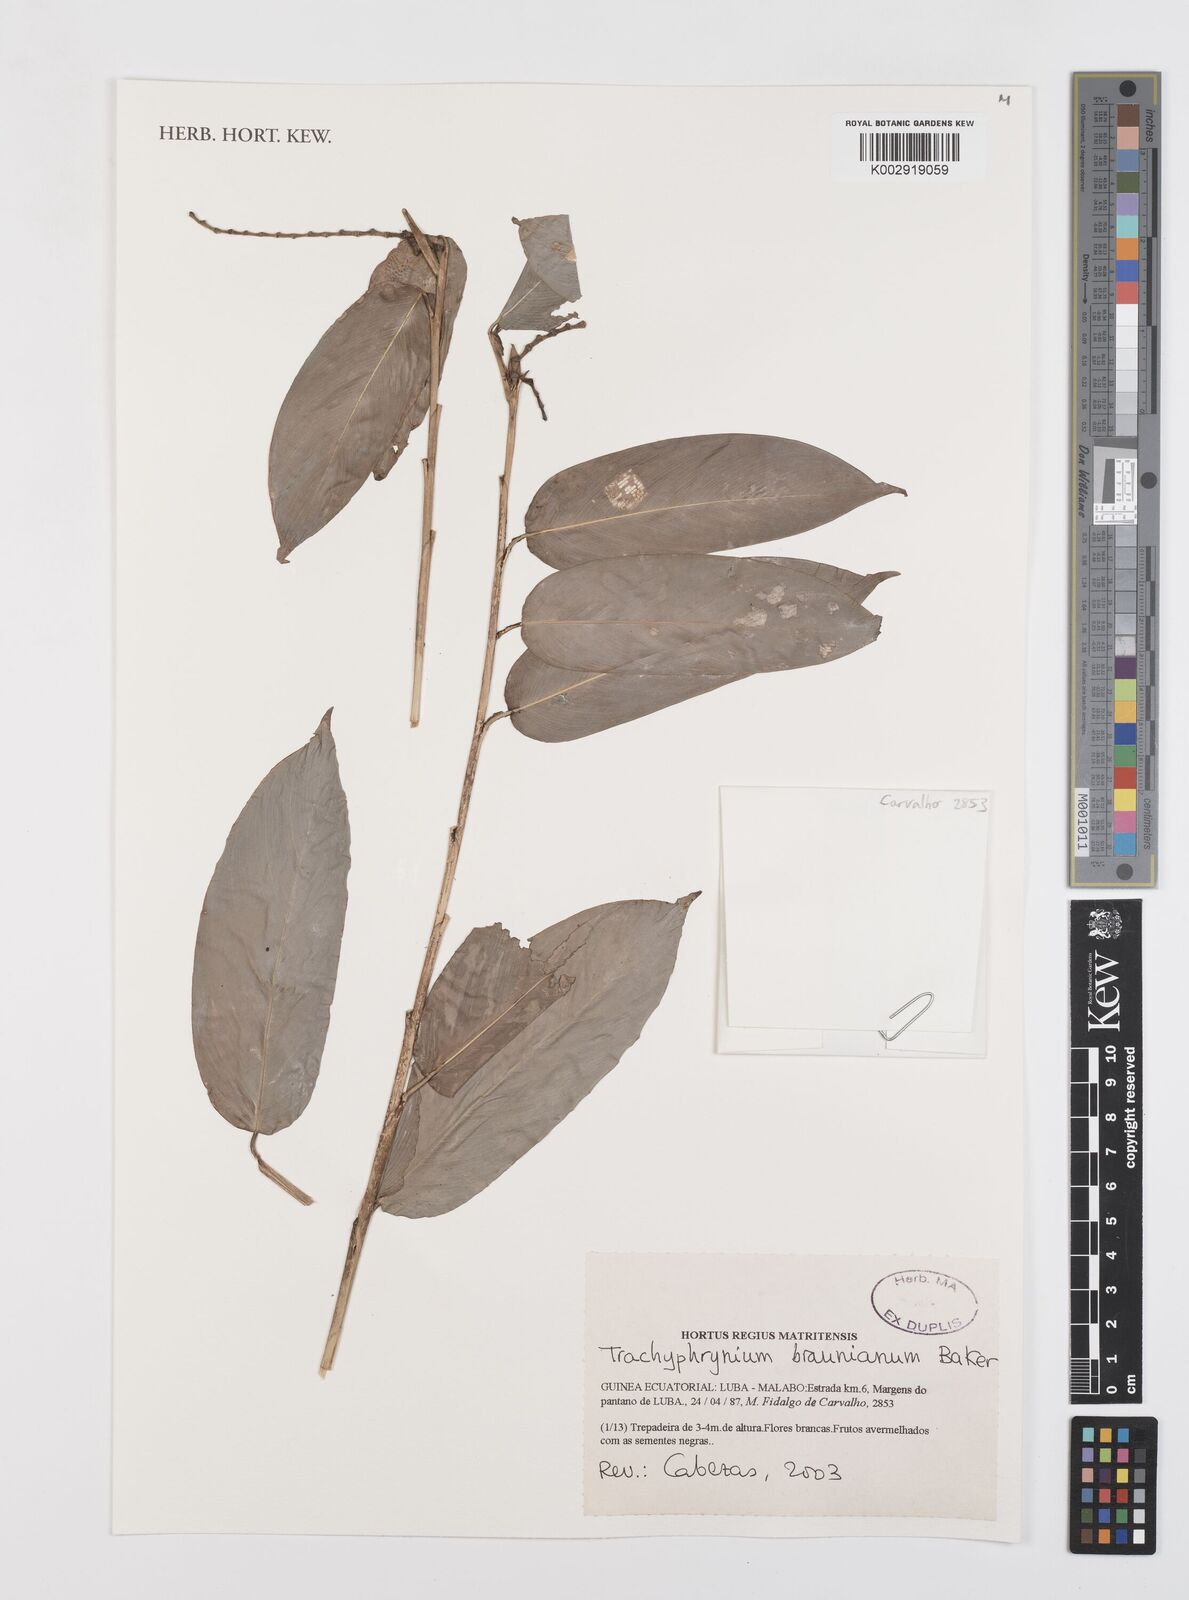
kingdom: Plantae
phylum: Tracheophyta
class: Liliopsida
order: Zingiberales
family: Marantaceae
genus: Trachyphrynium
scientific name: Trachyphrynium braunianum
